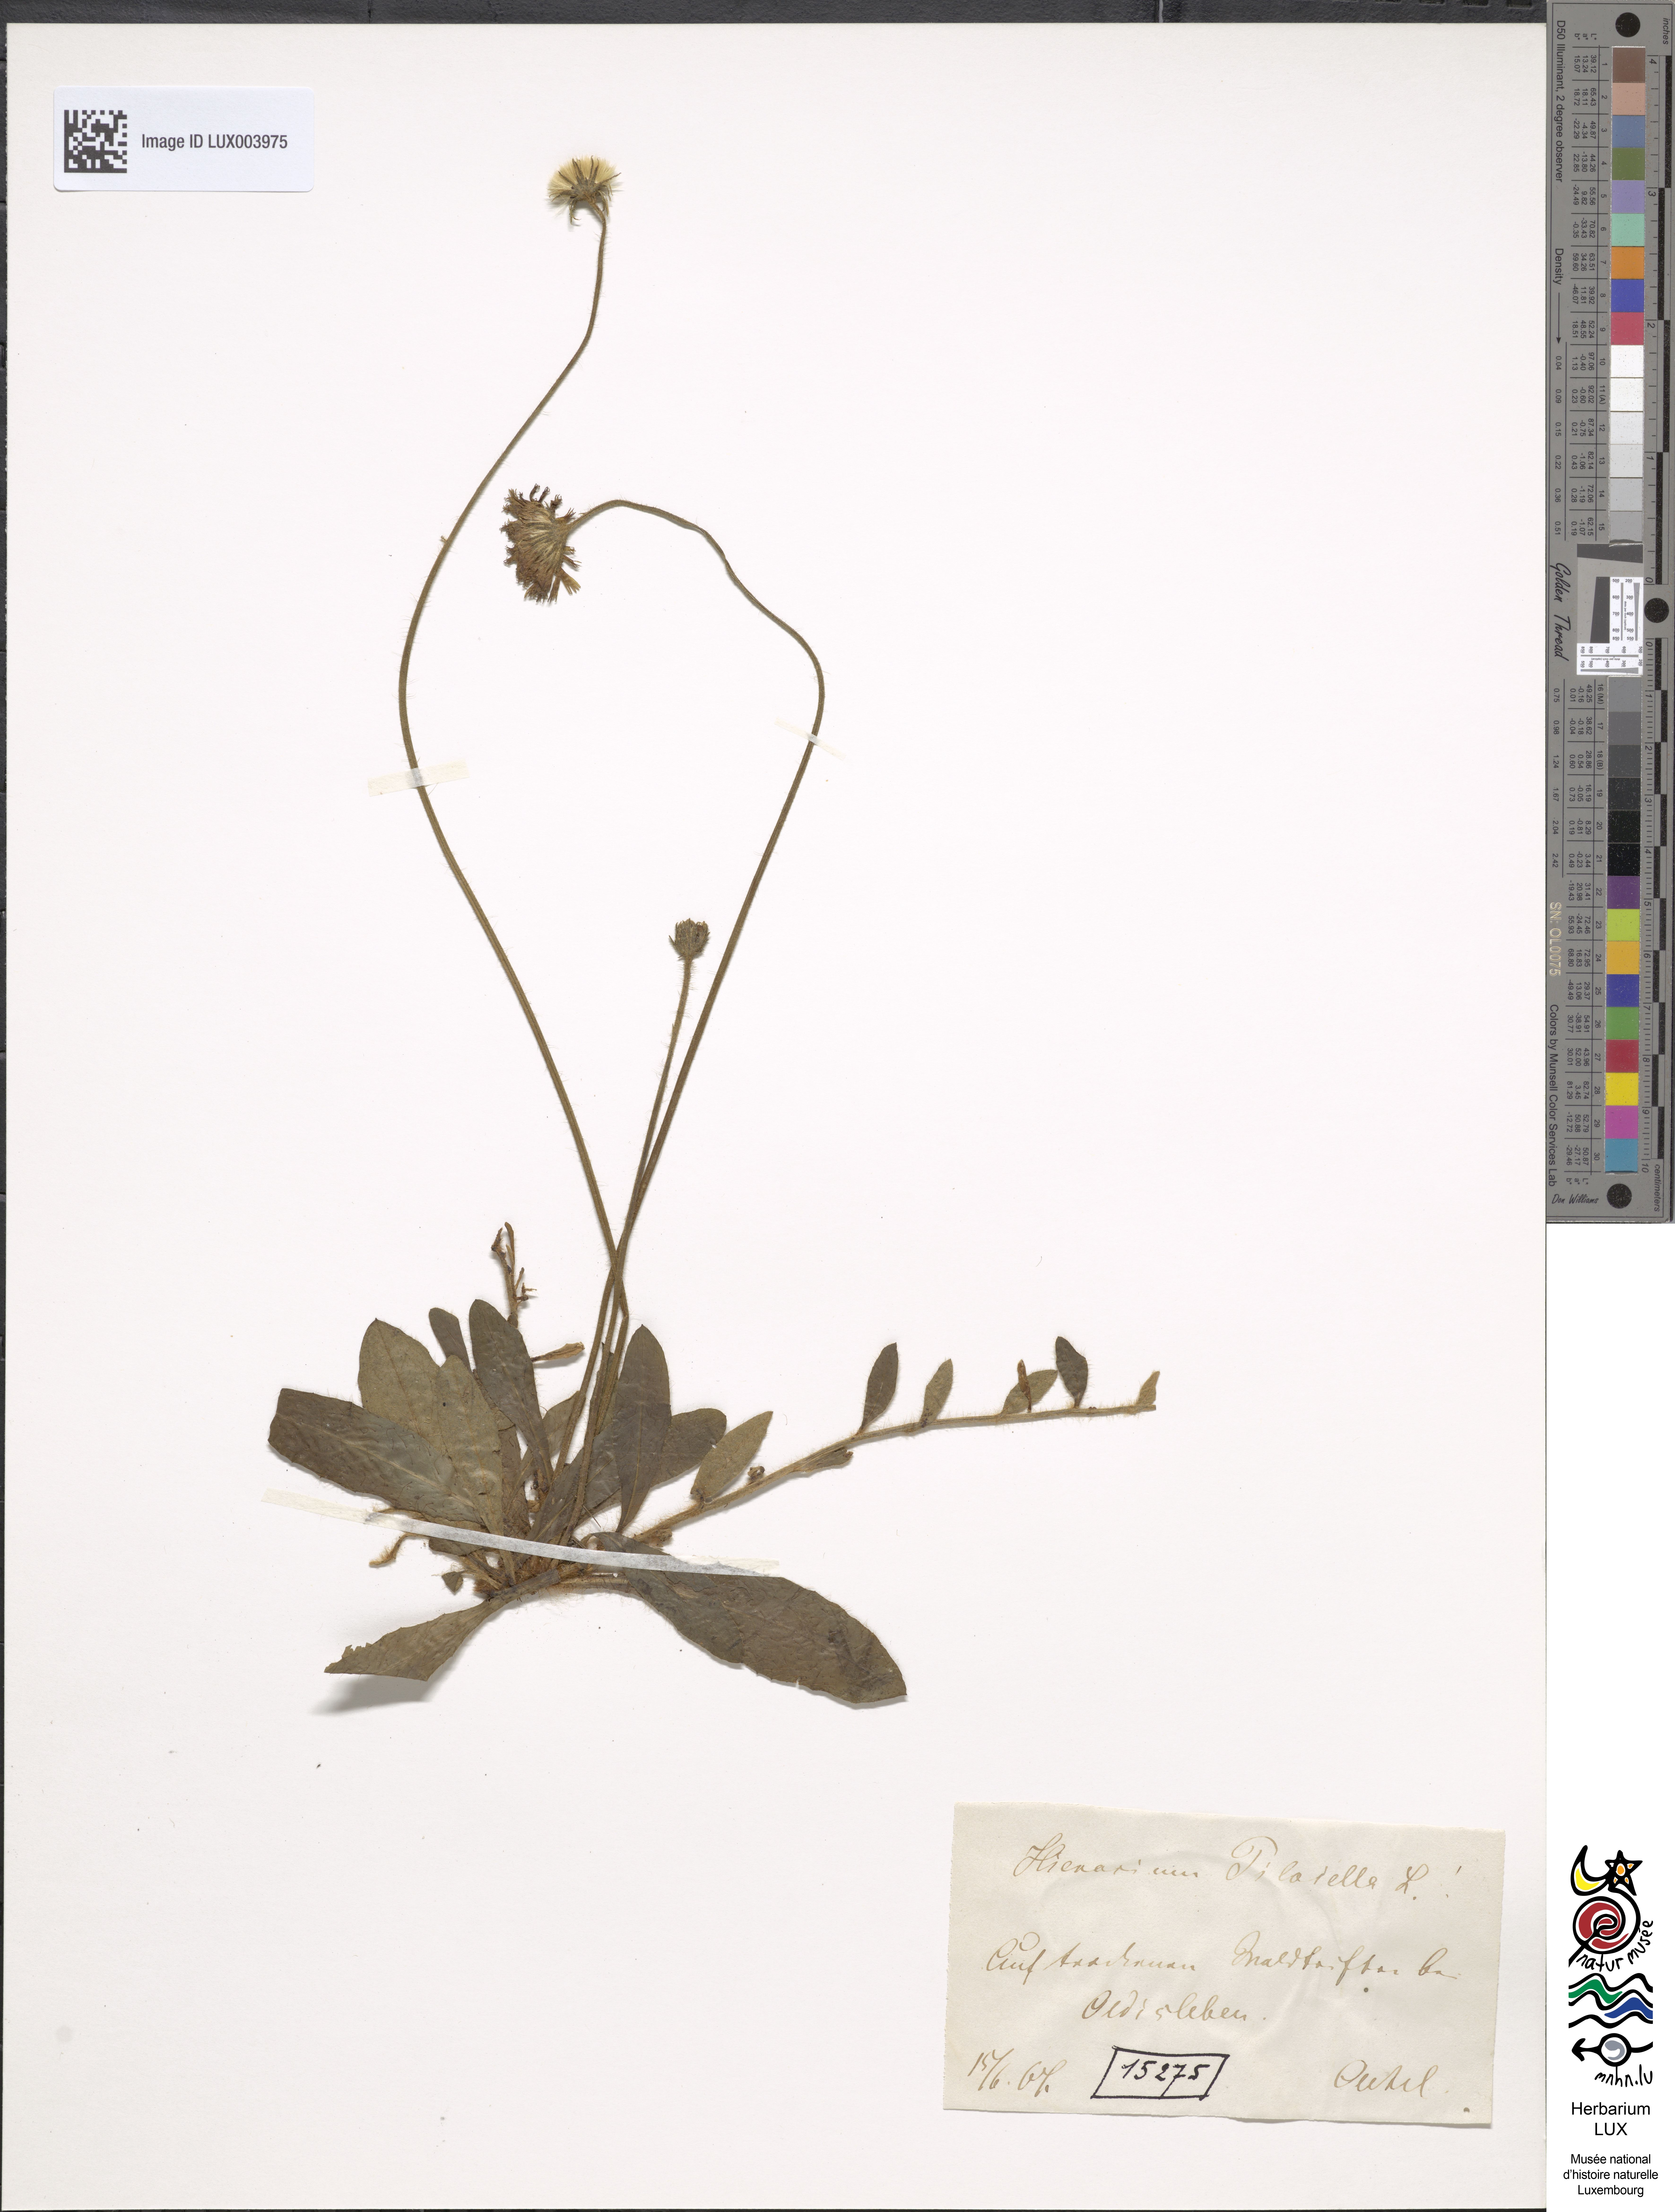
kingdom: Plantae
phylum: Tracheophyta
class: Magnoliopsida
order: Asterales
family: Asteraceae
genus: Pilosella
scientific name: Pilosella officinarum
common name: Mouse-ear hawkweed
